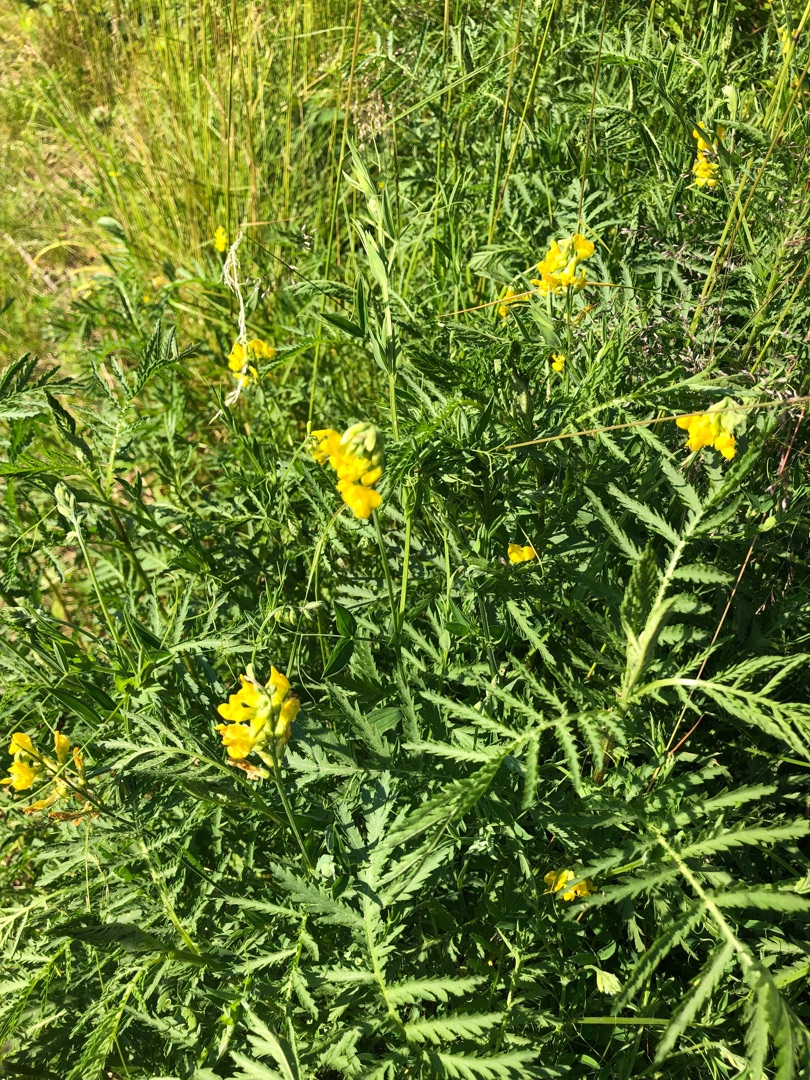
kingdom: Plantae
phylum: Tracheophyta
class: Magnoliopsida
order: Fabales
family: Fabaceae
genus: Lathyrus
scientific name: Lathyrus pratensis
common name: Gul fladbælg
